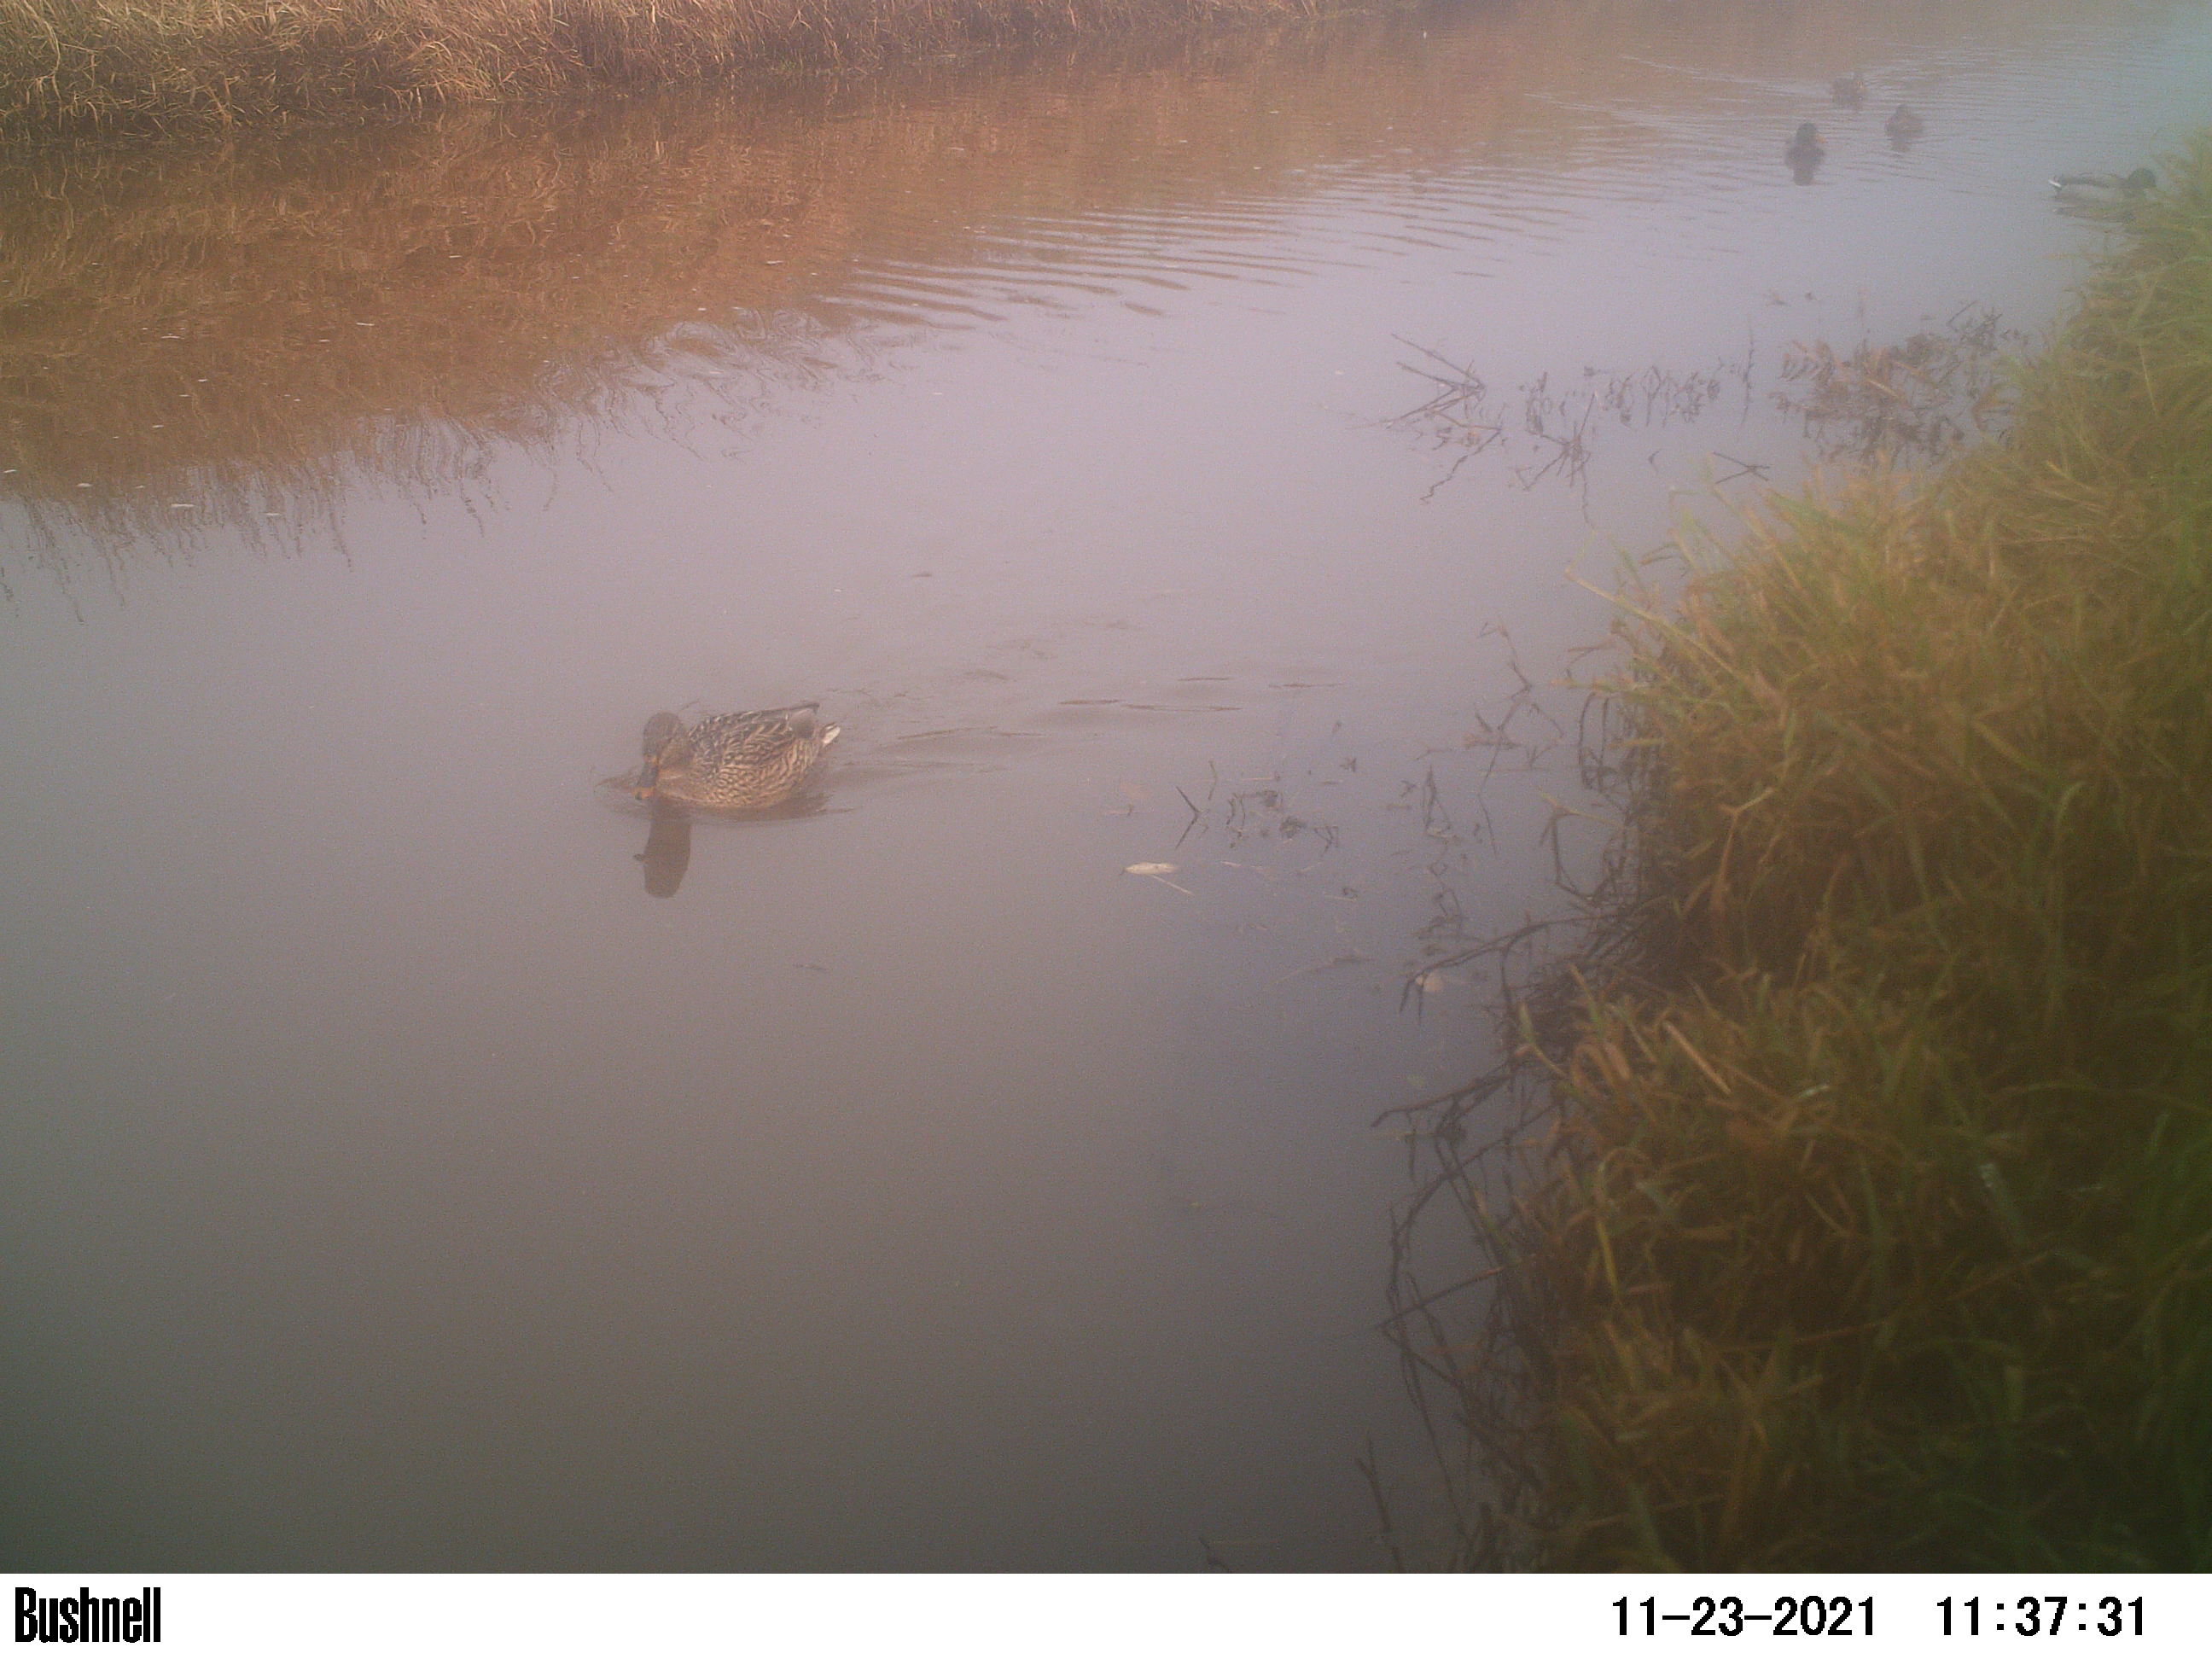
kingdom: Animalia
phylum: Chordata
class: Aves
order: Anseriformes
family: Anatidae
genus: Anas
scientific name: Anas
